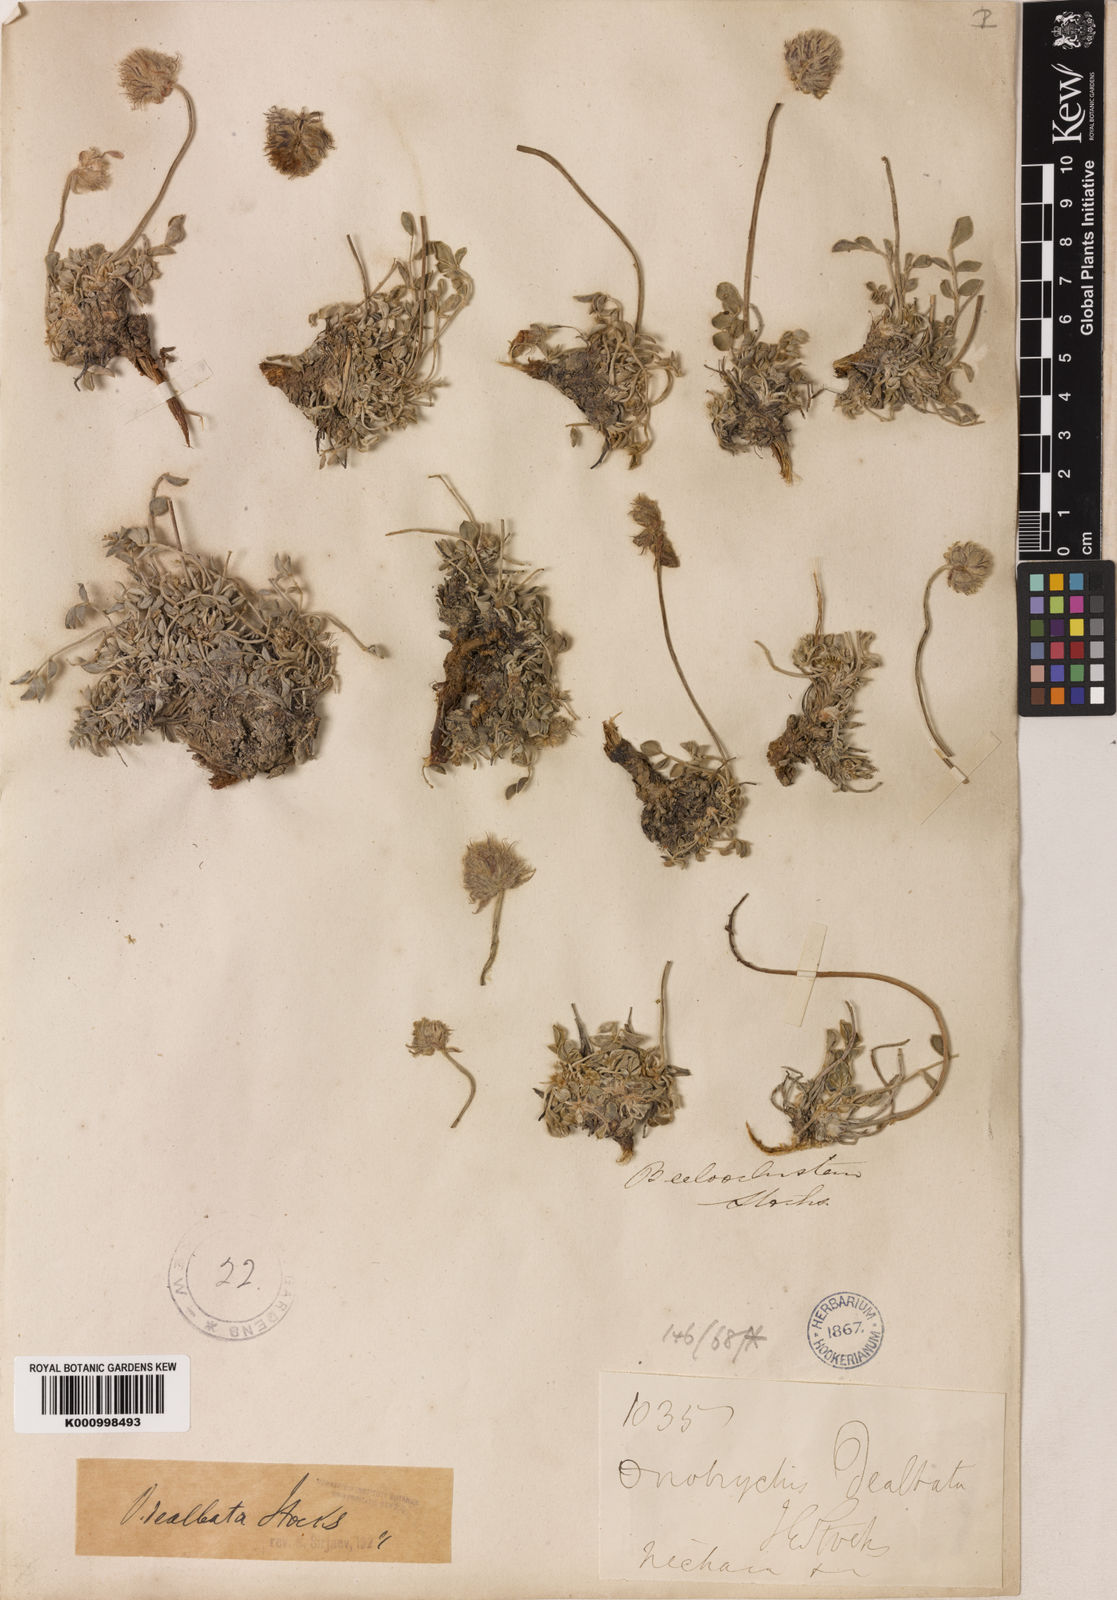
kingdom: Plantae
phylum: Tracheophyta
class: Magnoliopsida
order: Fabales
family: Fabaceae
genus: Onobrychis
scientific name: Onobrychis dealbata
